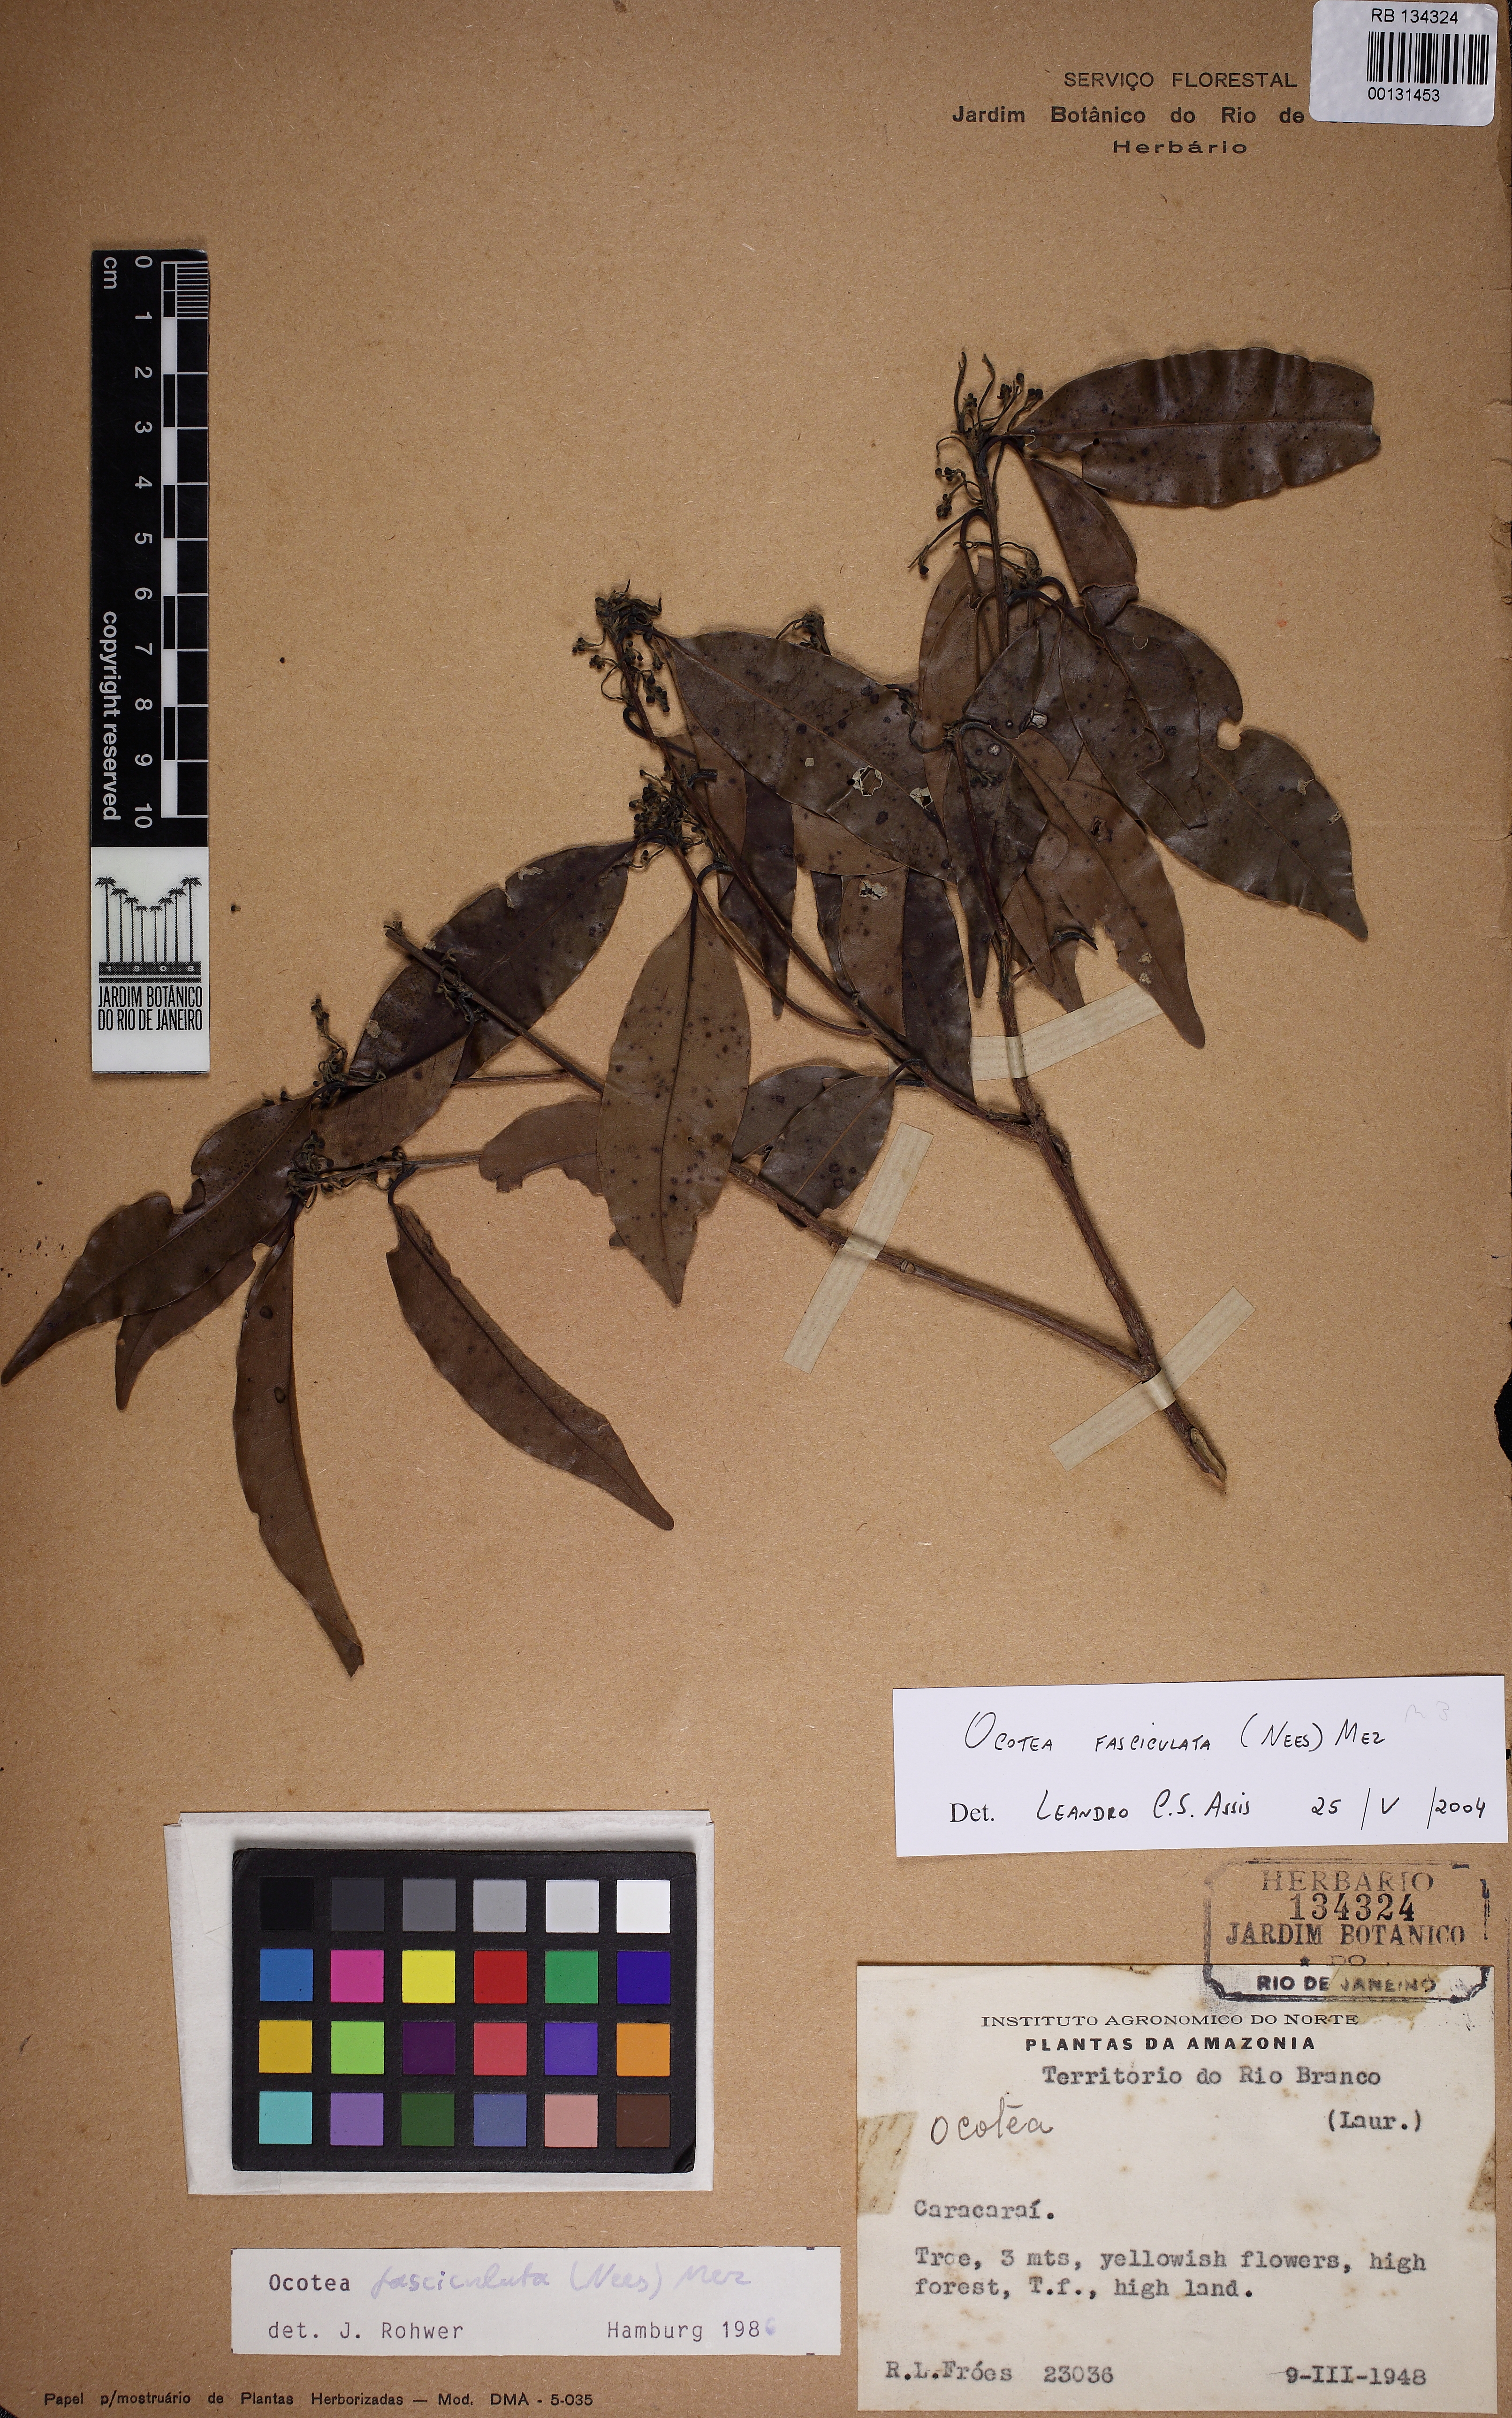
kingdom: Plantae
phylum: Tracheophyta
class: Magnoliopsida
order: Laurales
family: Lauraceae
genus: Mespilodaphne
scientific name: Mespilodaphne fasciculata
